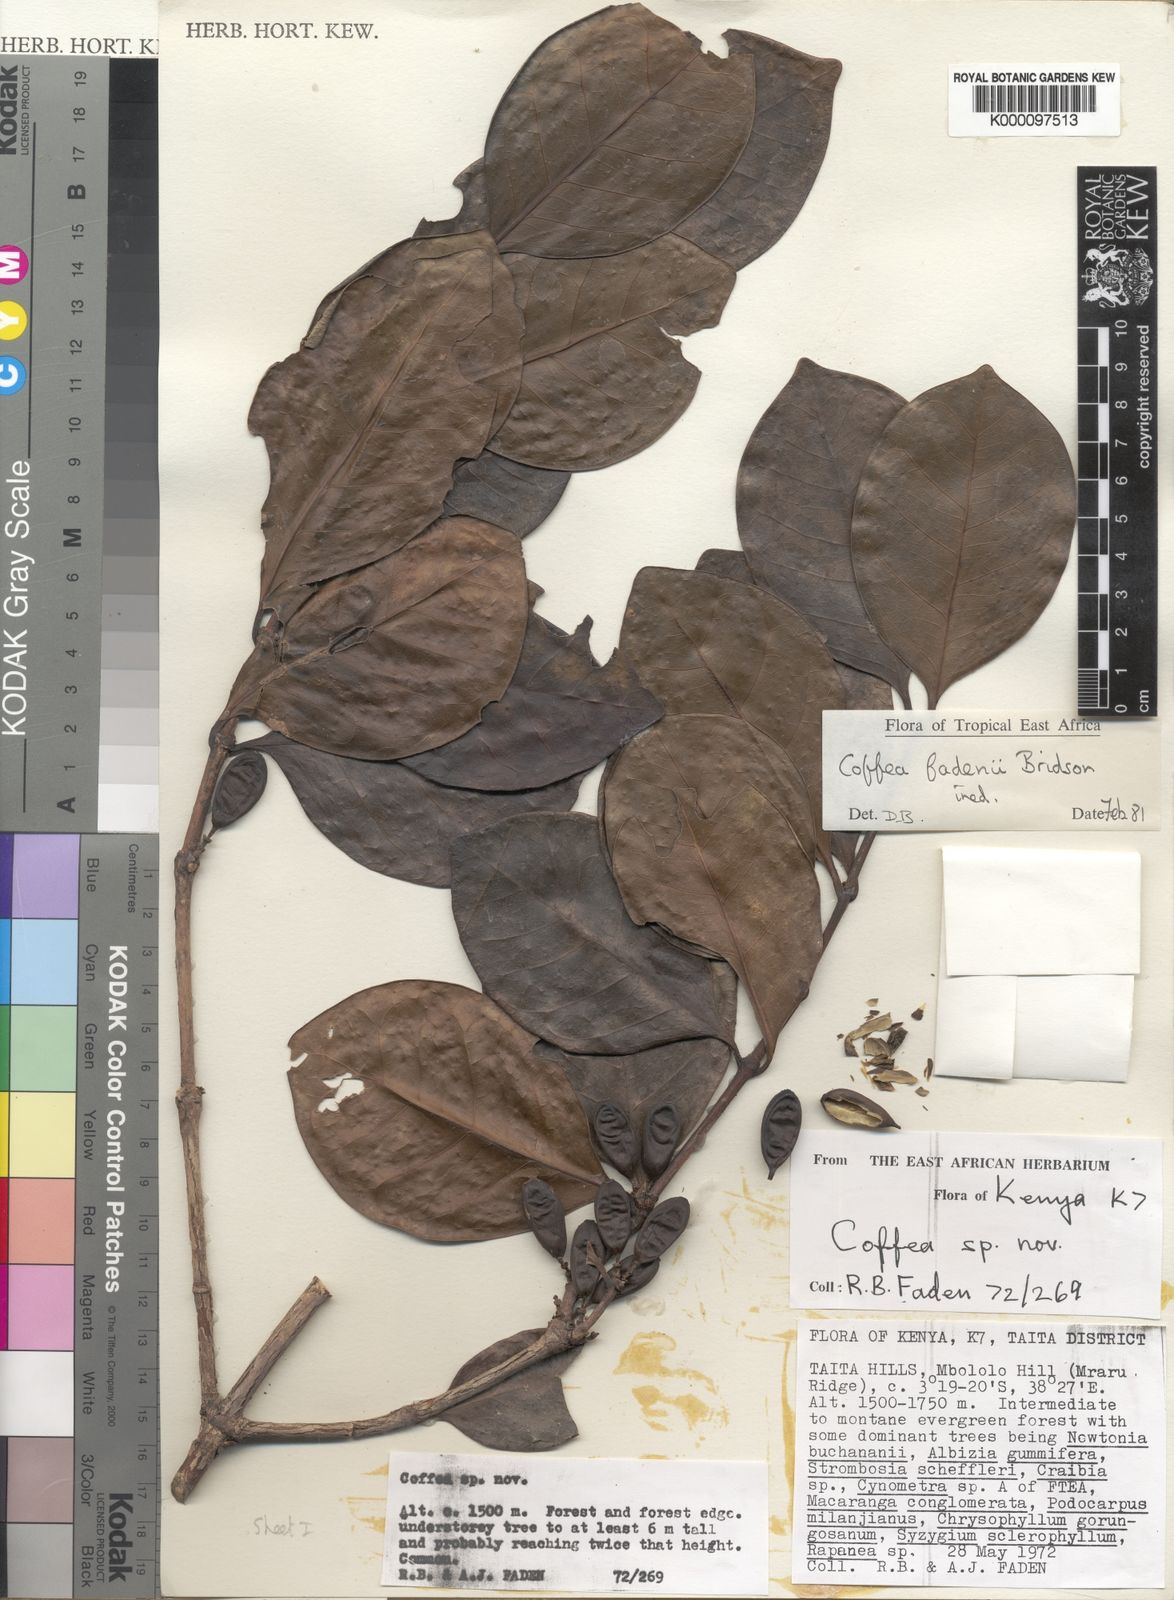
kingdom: Plantae
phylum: Tracheophyta
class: Magnoliopsida
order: Gentianales
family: Rubiaceae
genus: Coffea
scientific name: Coffea fadenii
